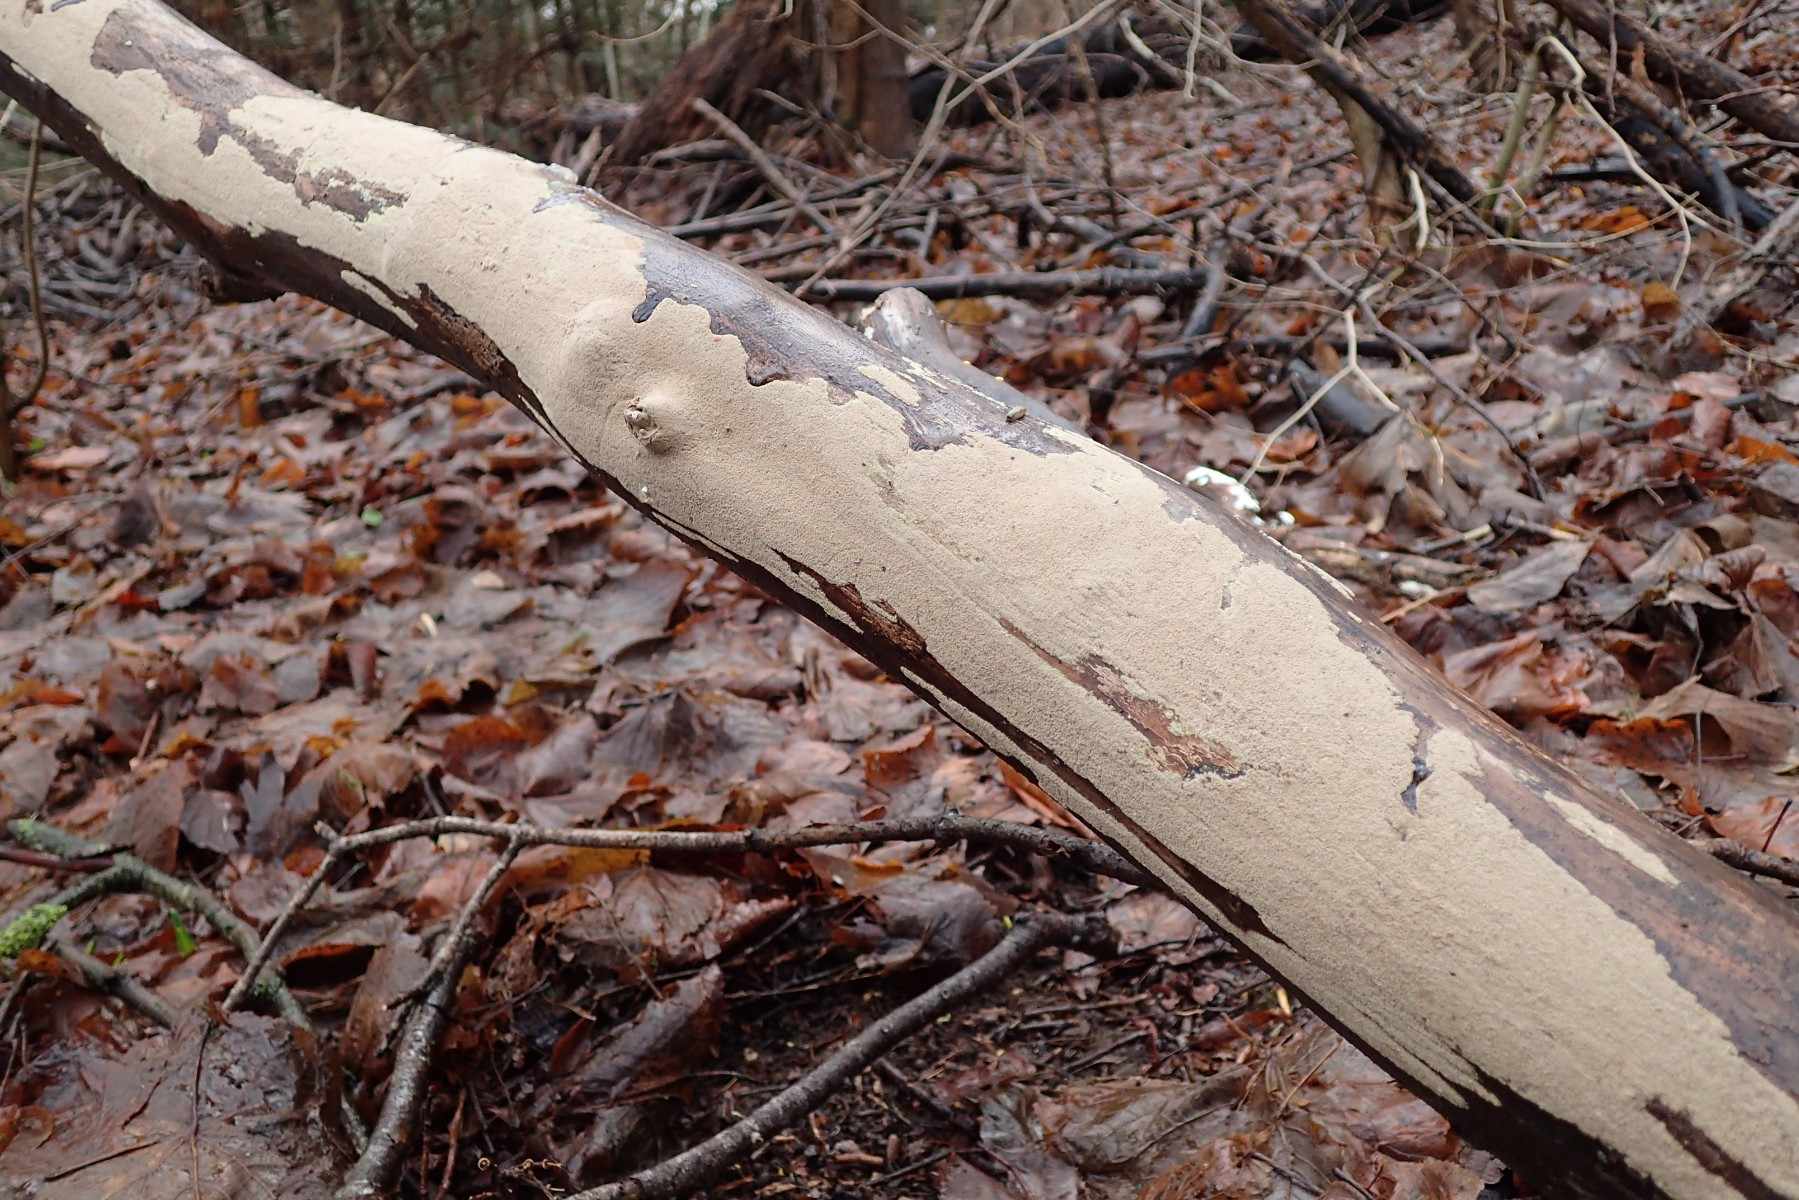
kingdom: Fungi
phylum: Ascomycota
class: Sordariomycetes
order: Xylariales
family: Hypoxylaceae
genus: Nodulisporium
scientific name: Nodulisporium
